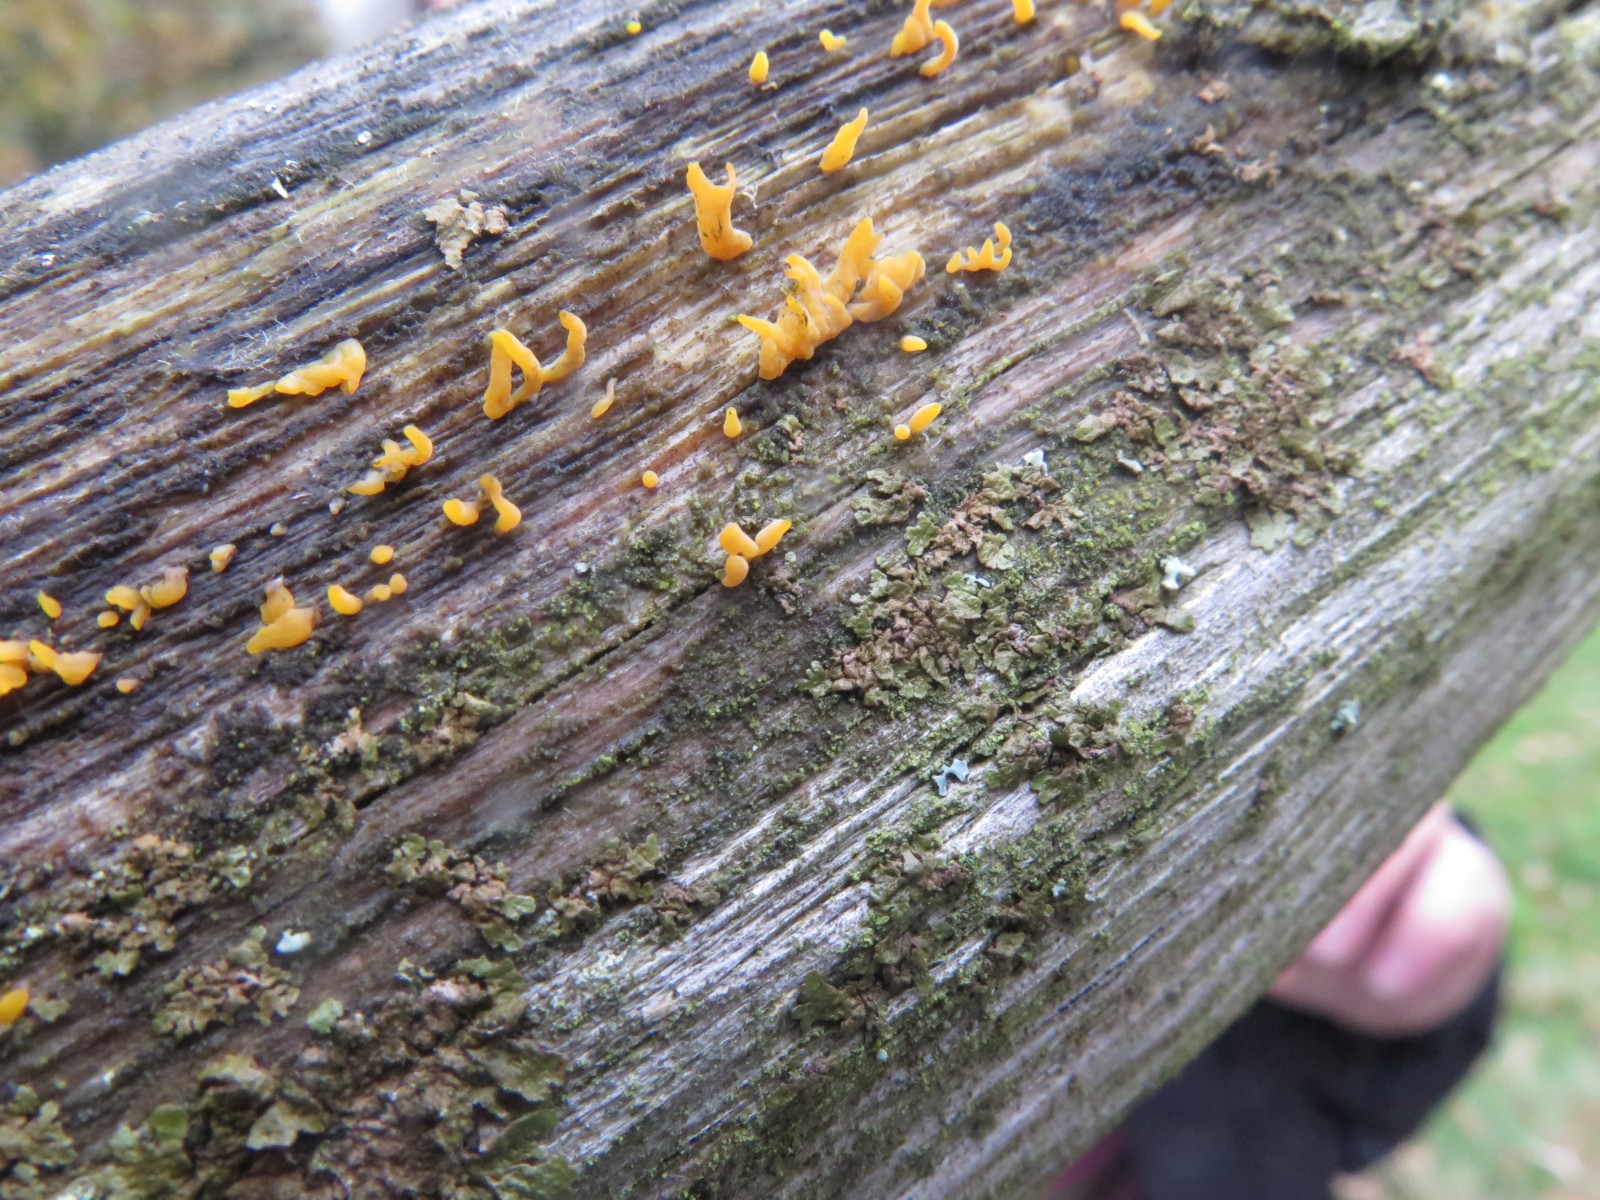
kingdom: Fungi
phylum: Basidiomycota
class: Dacrymycetes
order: Dacrymycetales
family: Dacrymycetaceae
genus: Calocera
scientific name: Calocera cornea
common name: liden guldgaffel
